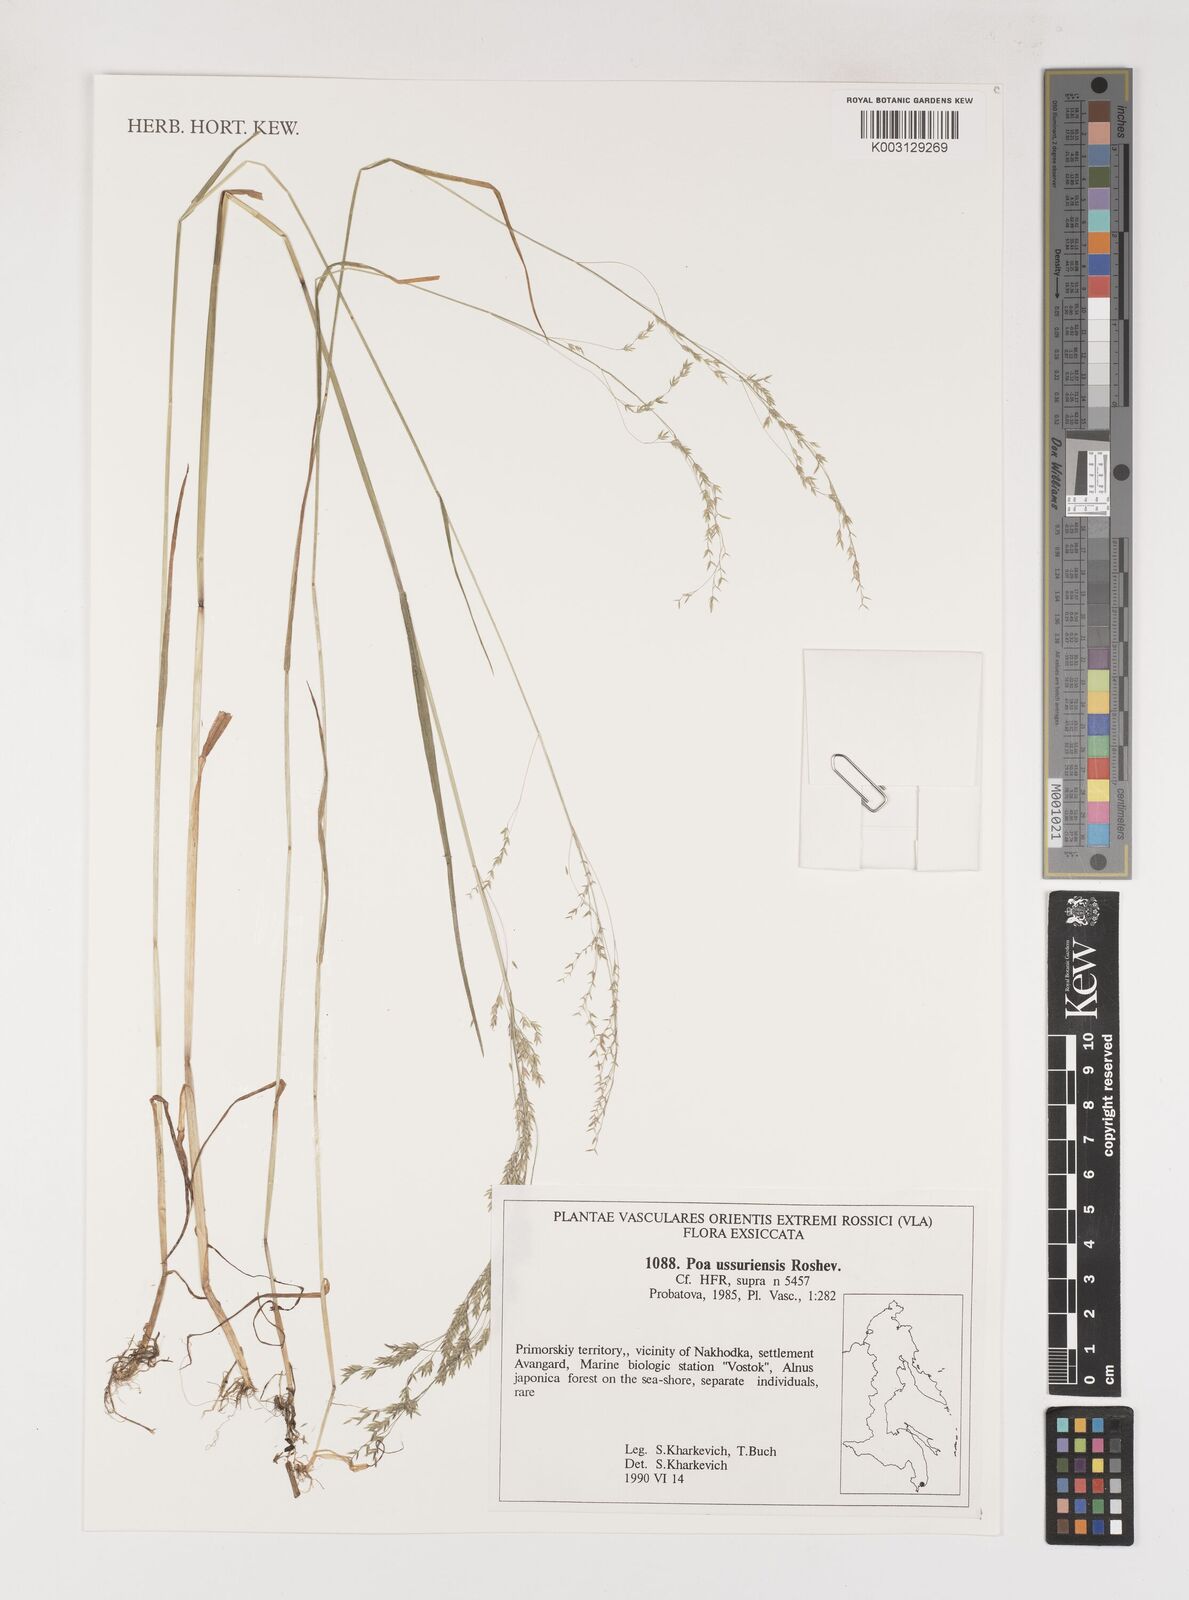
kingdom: Plantae
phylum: Tracheophyta
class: Liliopsida
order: Poales
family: Poaceae
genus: Poa
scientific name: Poa ussuriensis
